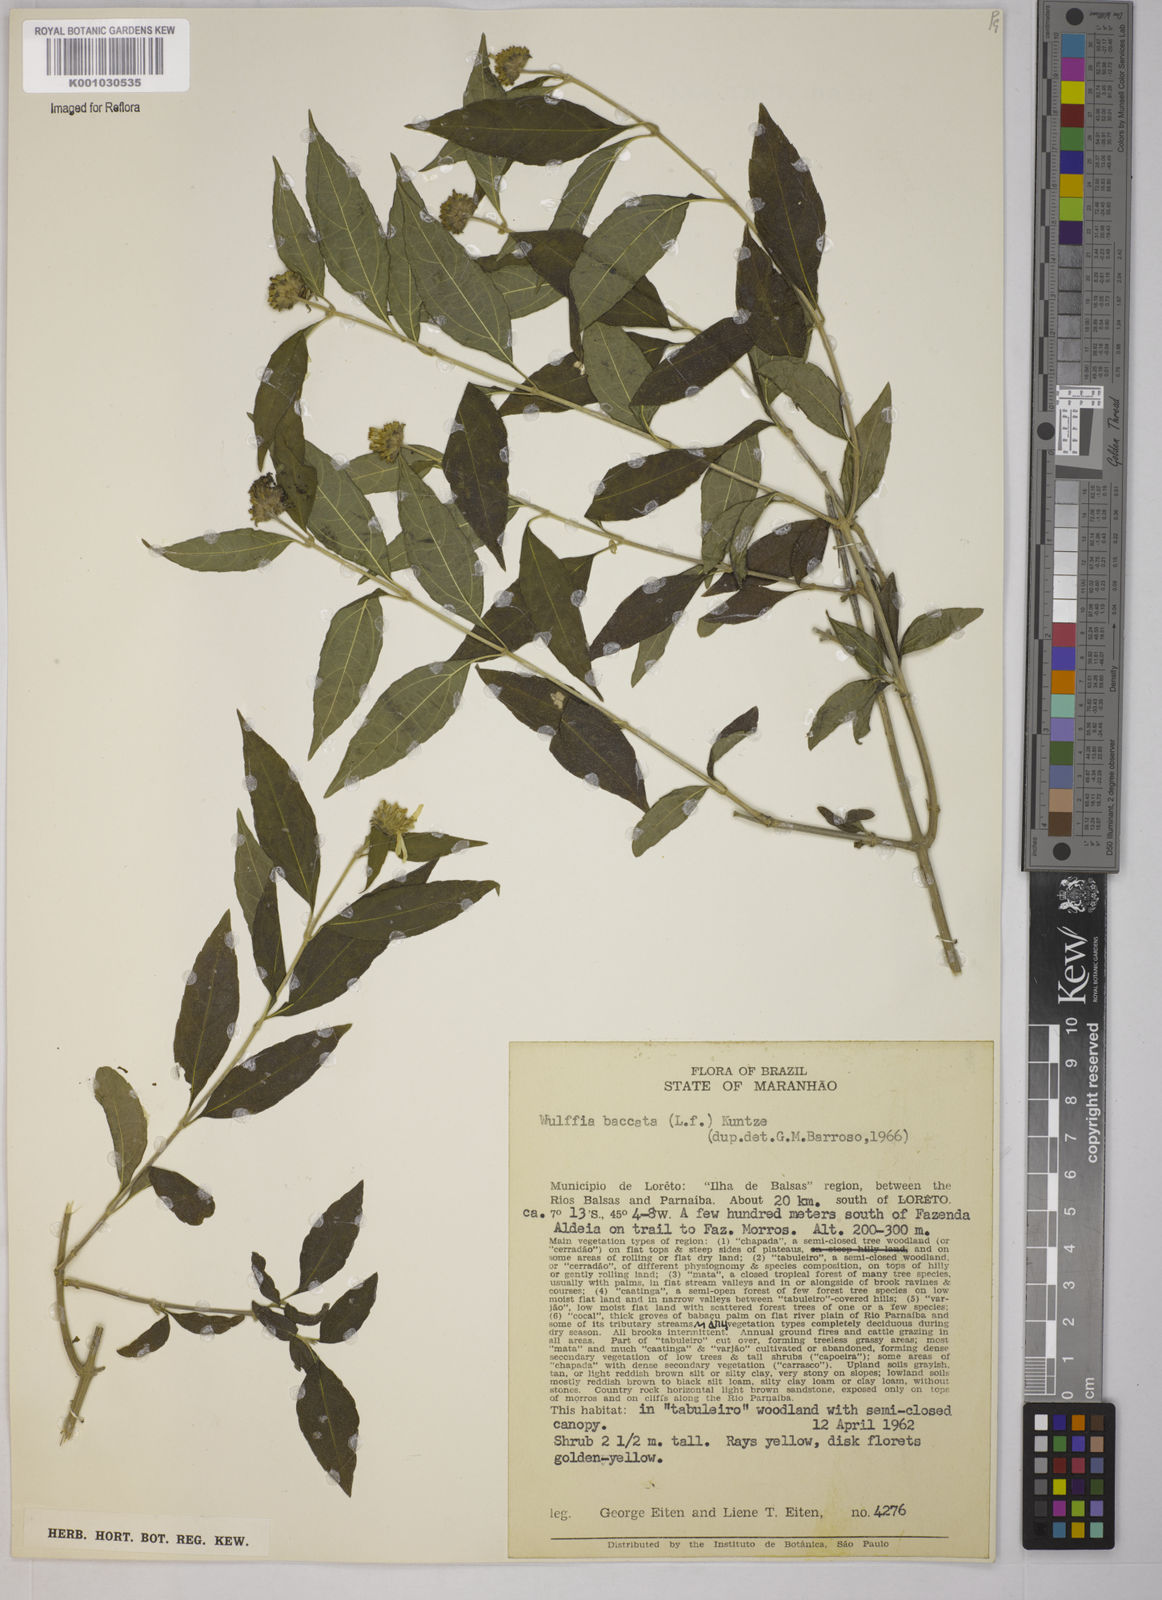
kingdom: Plantae
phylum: Tracheophyta
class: Magnoliopsida
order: Asterales
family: Asteraceae
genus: Tilesia
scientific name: Tilesia baccata
